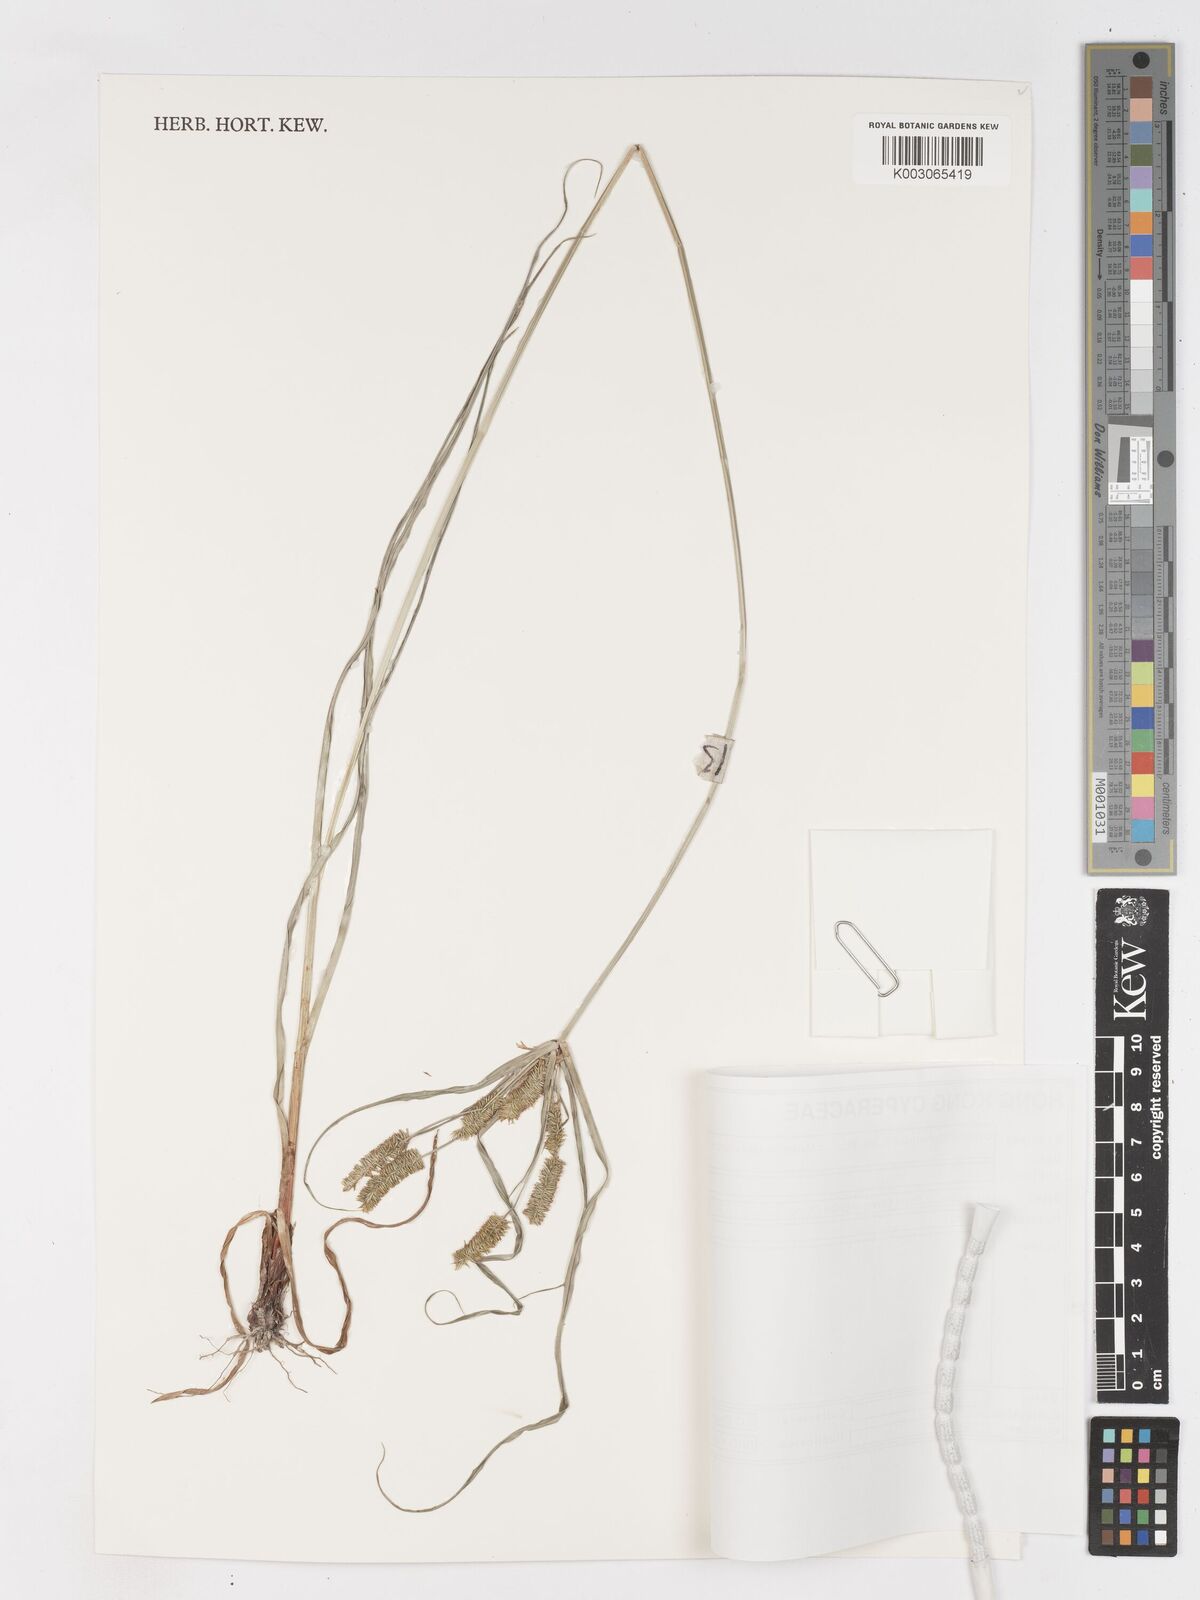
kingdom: Plantae
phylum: Tracheophyta
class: Liliopsida
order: Poales
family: Cyperaceae
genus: Cyperus
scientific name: Cyperus cyperoides
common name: Pacific island flat sedge
